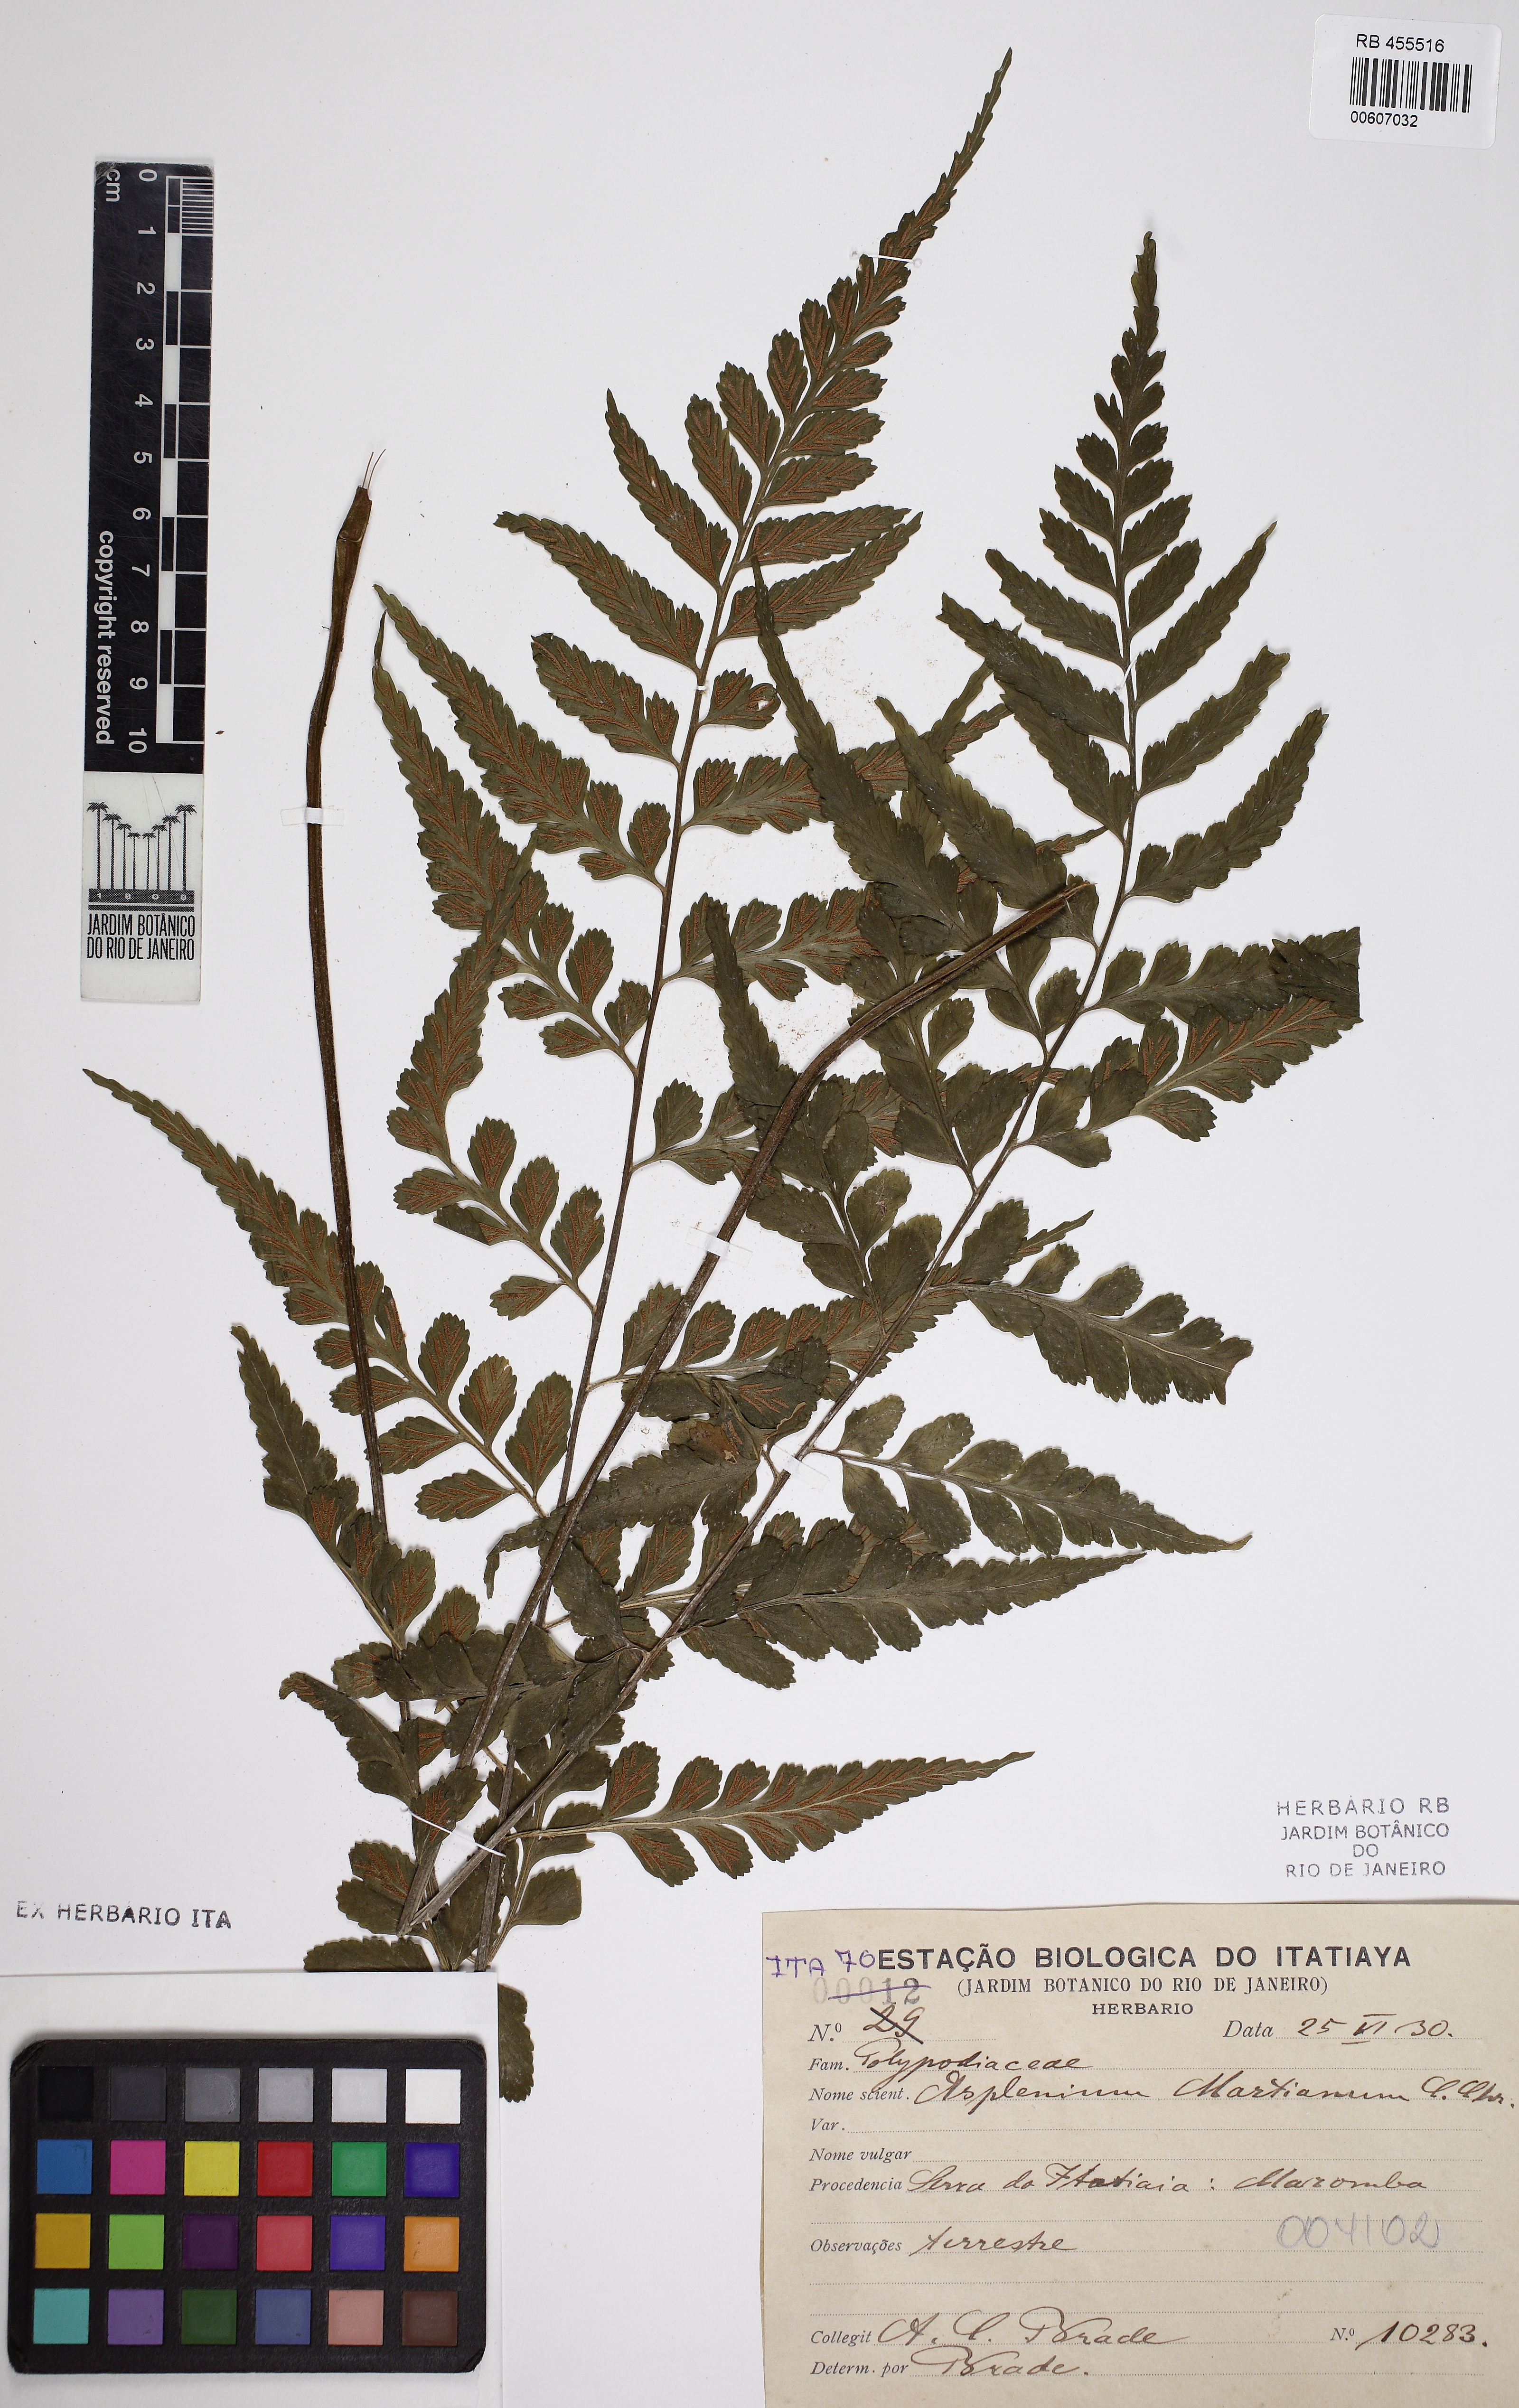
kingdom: Plantae
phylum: Tracheophyta
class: Polypodiopsida
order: Polypodiales
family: Aspleniaceae
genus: Asplenium
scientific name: Asplenium martianum
